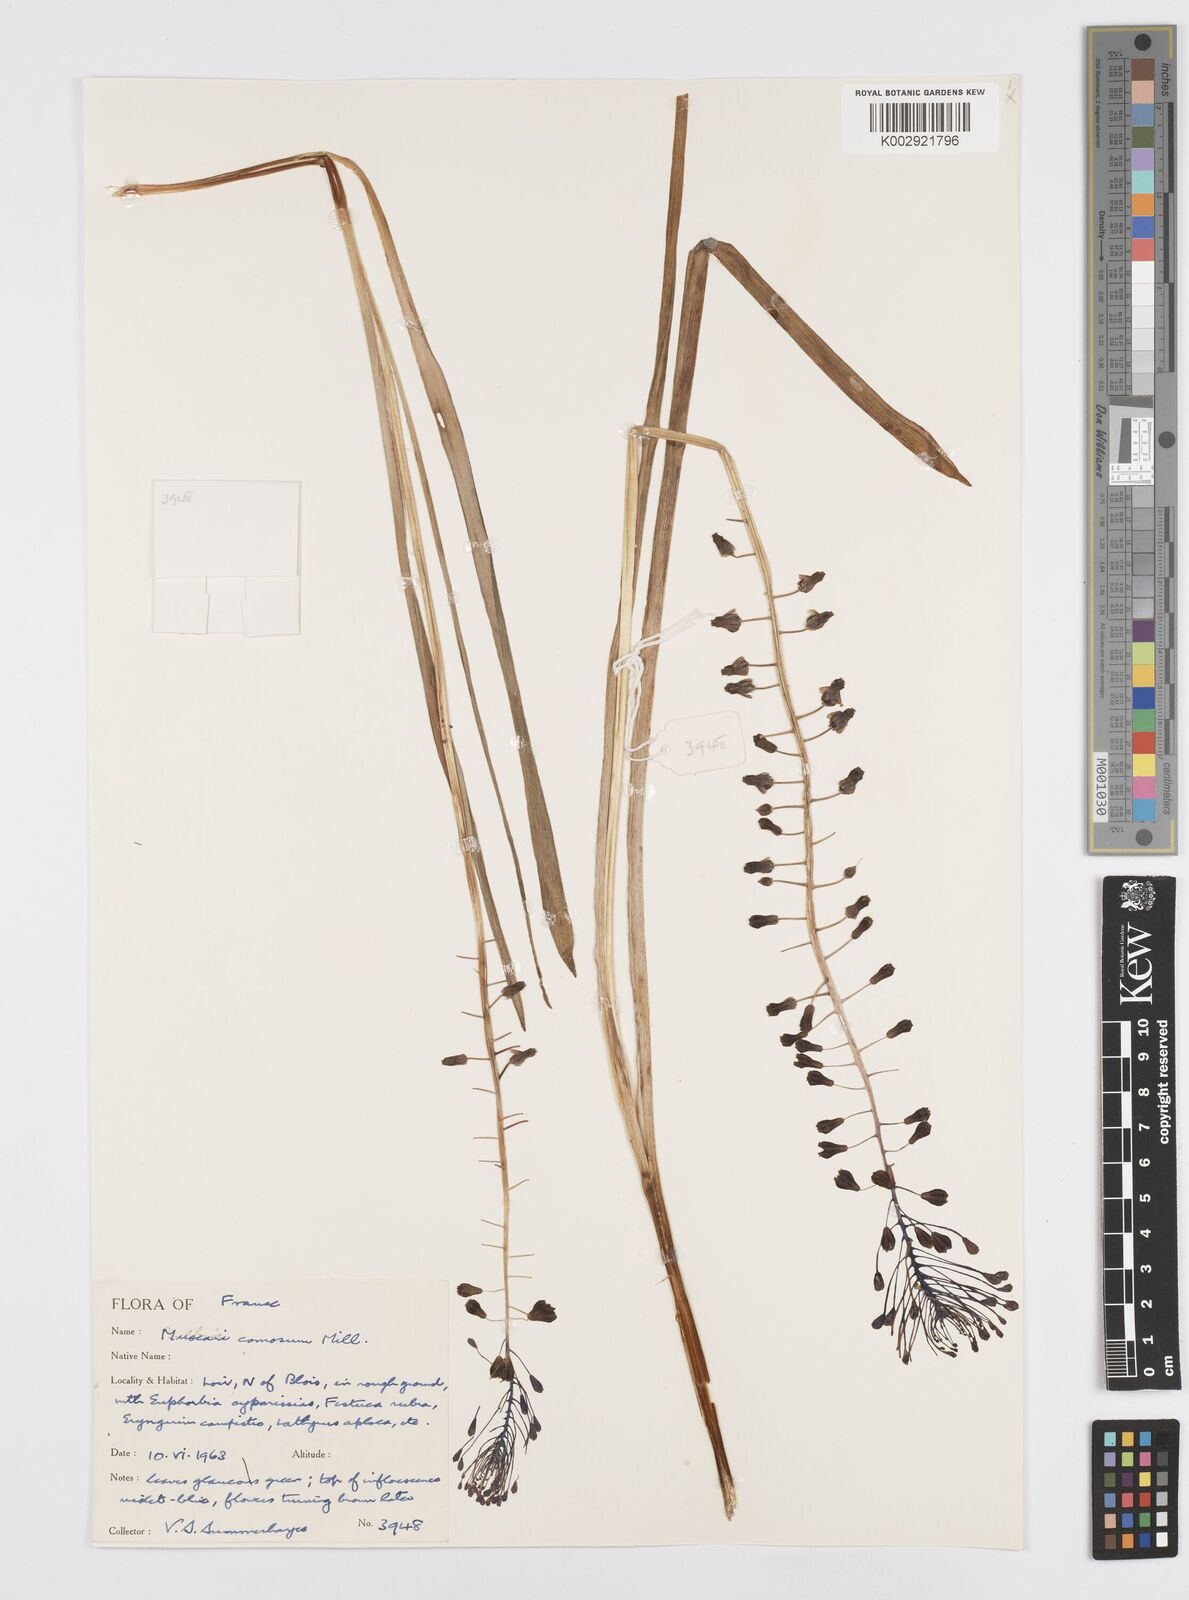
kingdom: Plantae
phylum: Tracheophyta
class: Liliopsida
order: Asparagales
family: Asparagaceae
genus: Muscari
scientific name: Muscari comosum
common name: Tassel hyacinth
